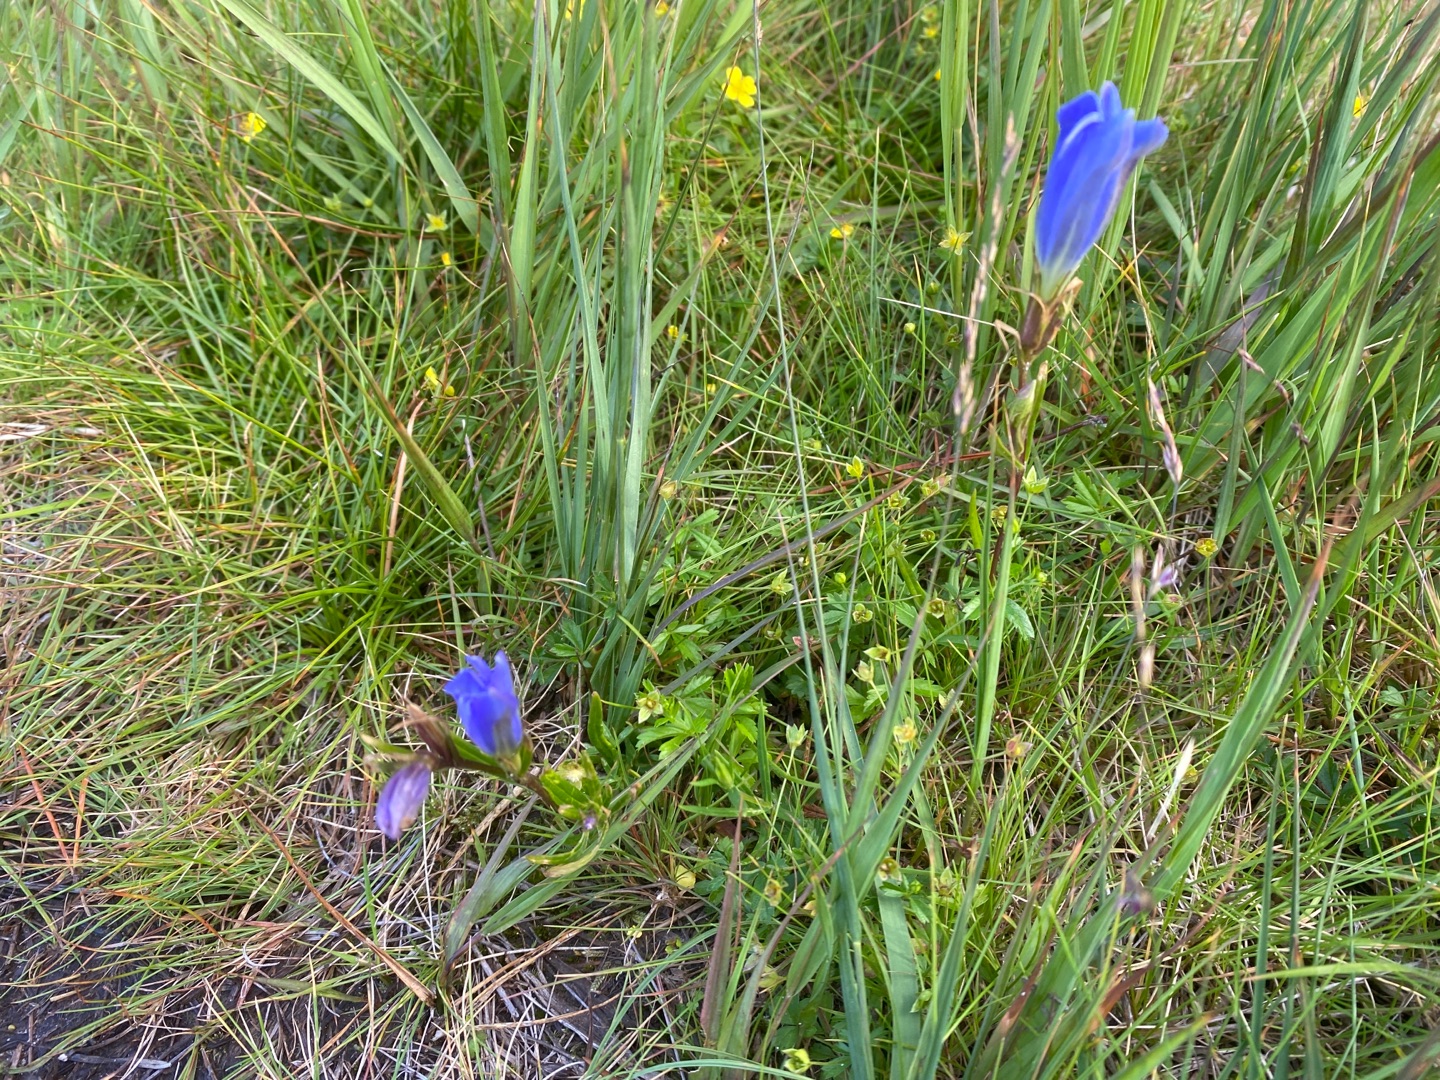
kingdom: Plantae
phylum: Tracheophyta
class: Magnoliopsida
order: Gentianales
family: Gentianaceae
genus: Gentiana
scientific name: Gentiana pneumonanthe
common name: Klokke-ensian
